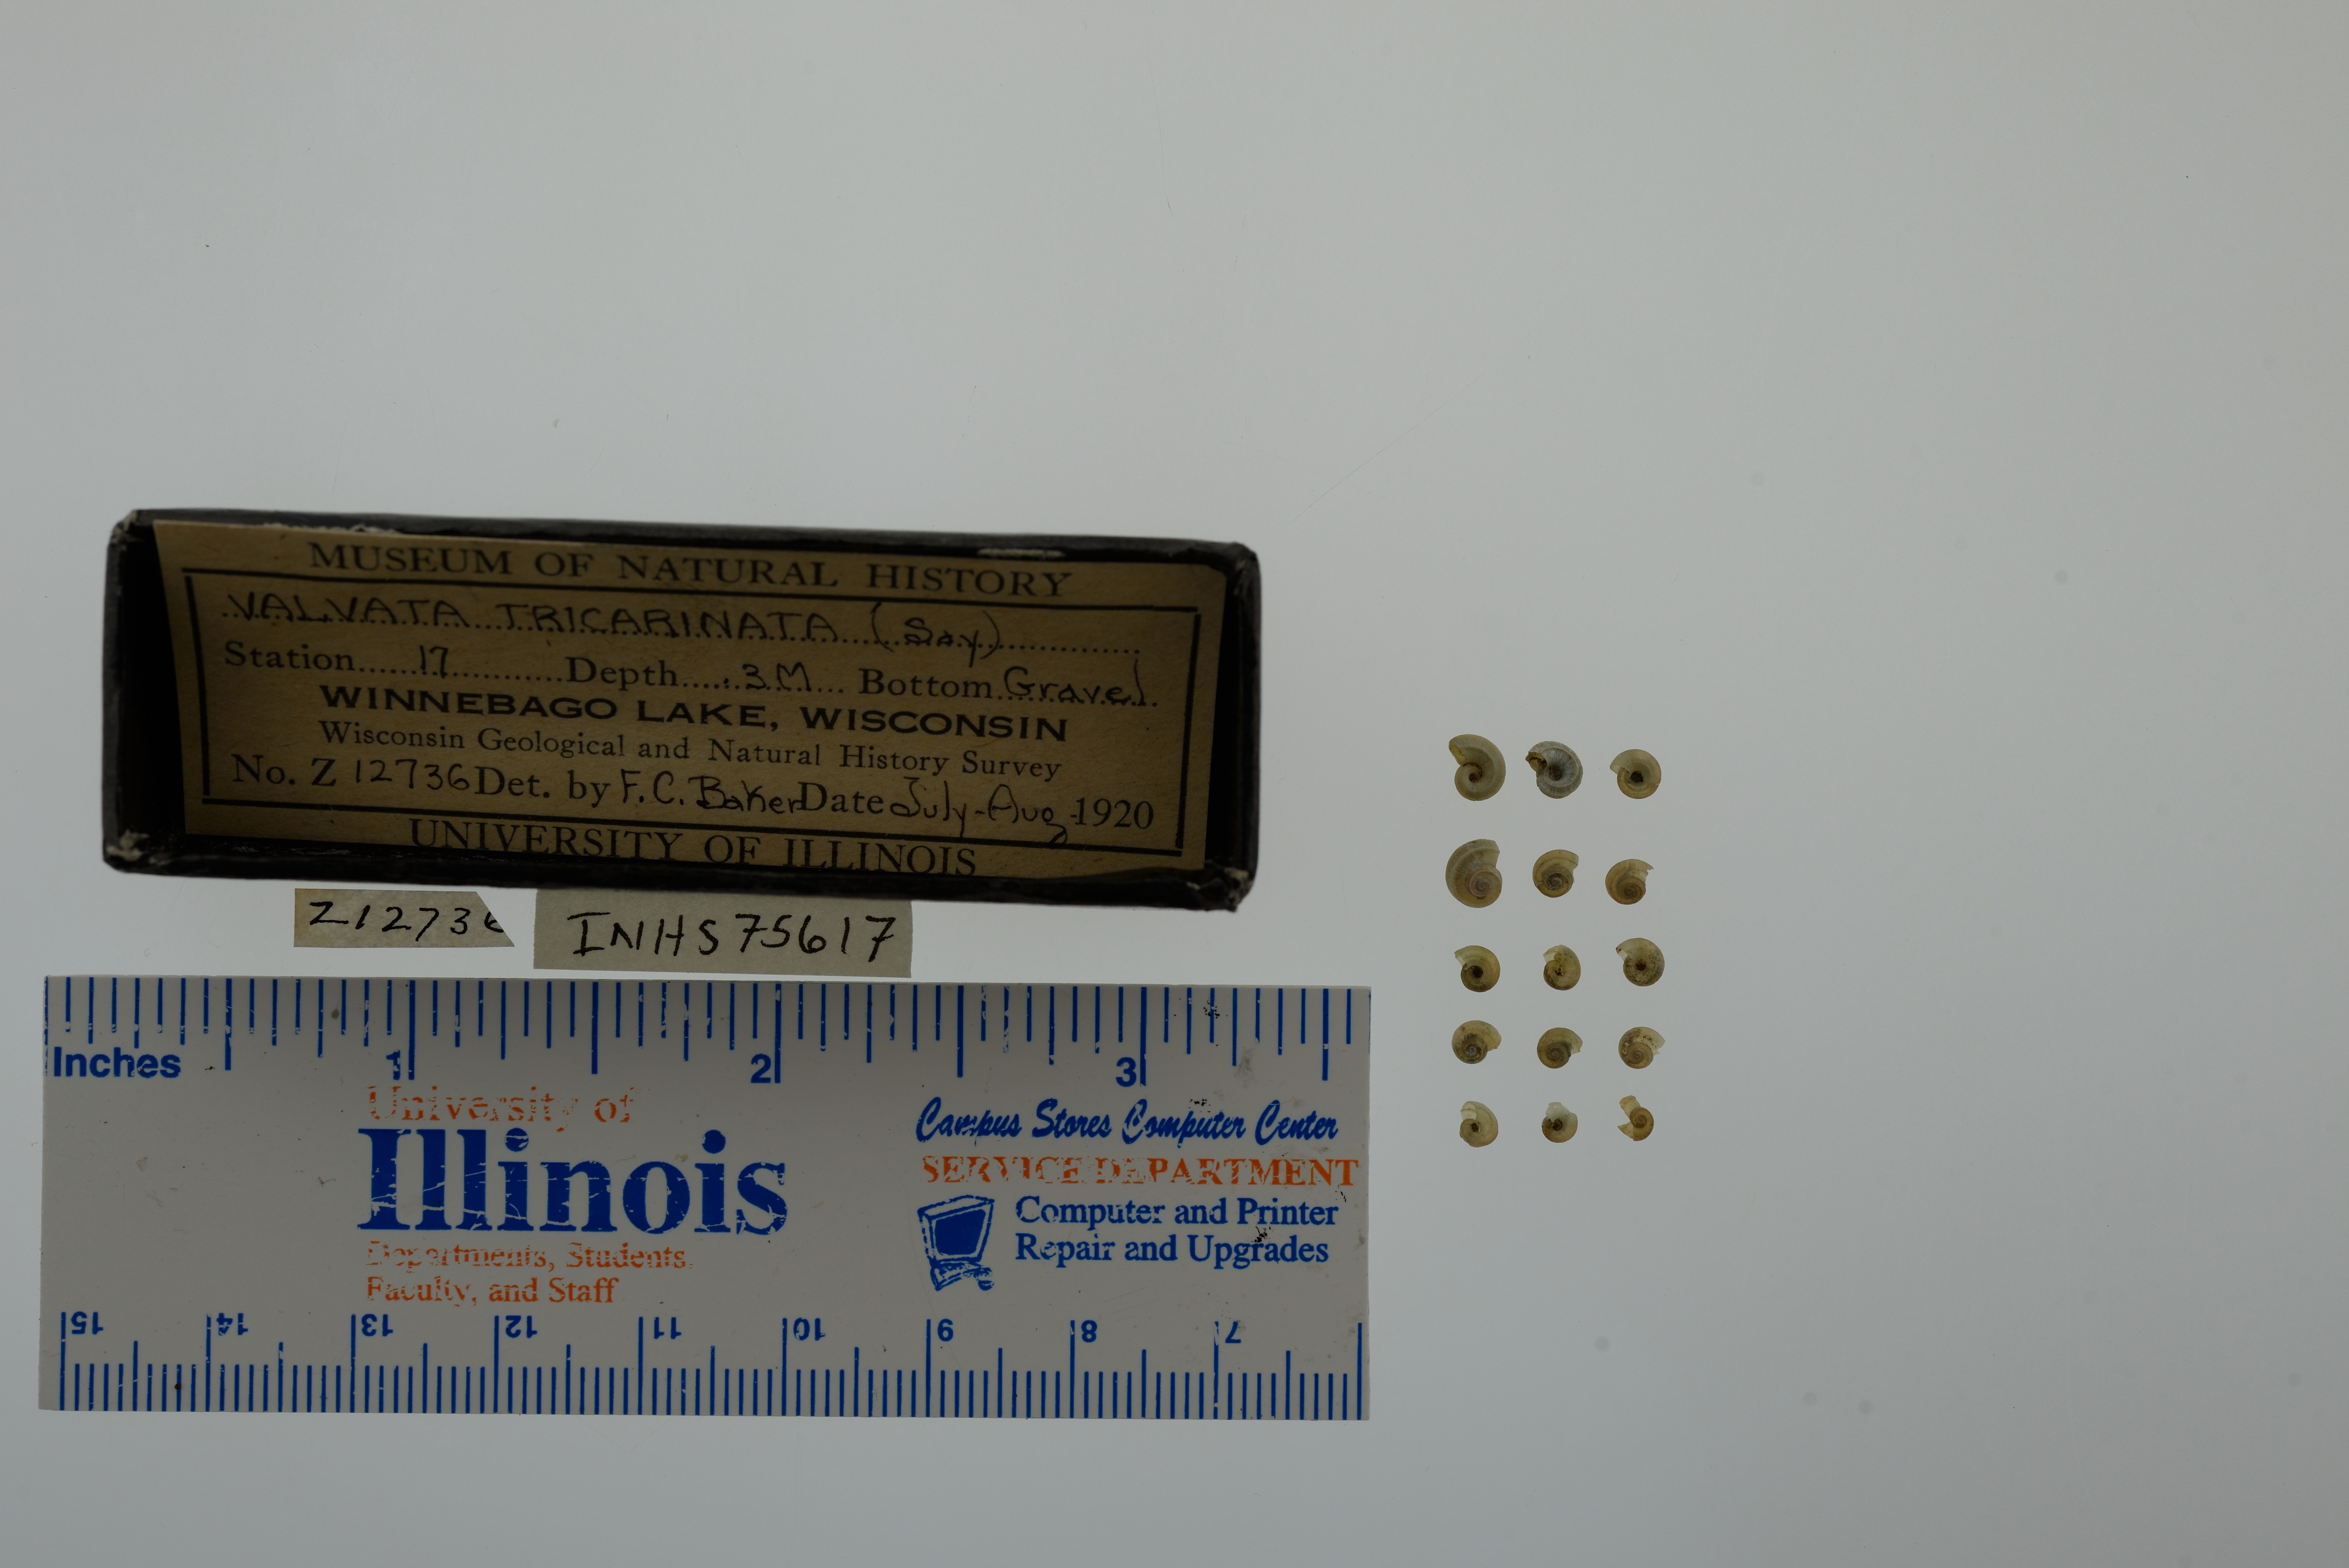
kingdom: Animalia
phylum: Mollusca
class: Gastropoda
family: Valvatidae
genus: Valvata
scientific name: Valvata tricarinata
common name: Three-ridge valvata
